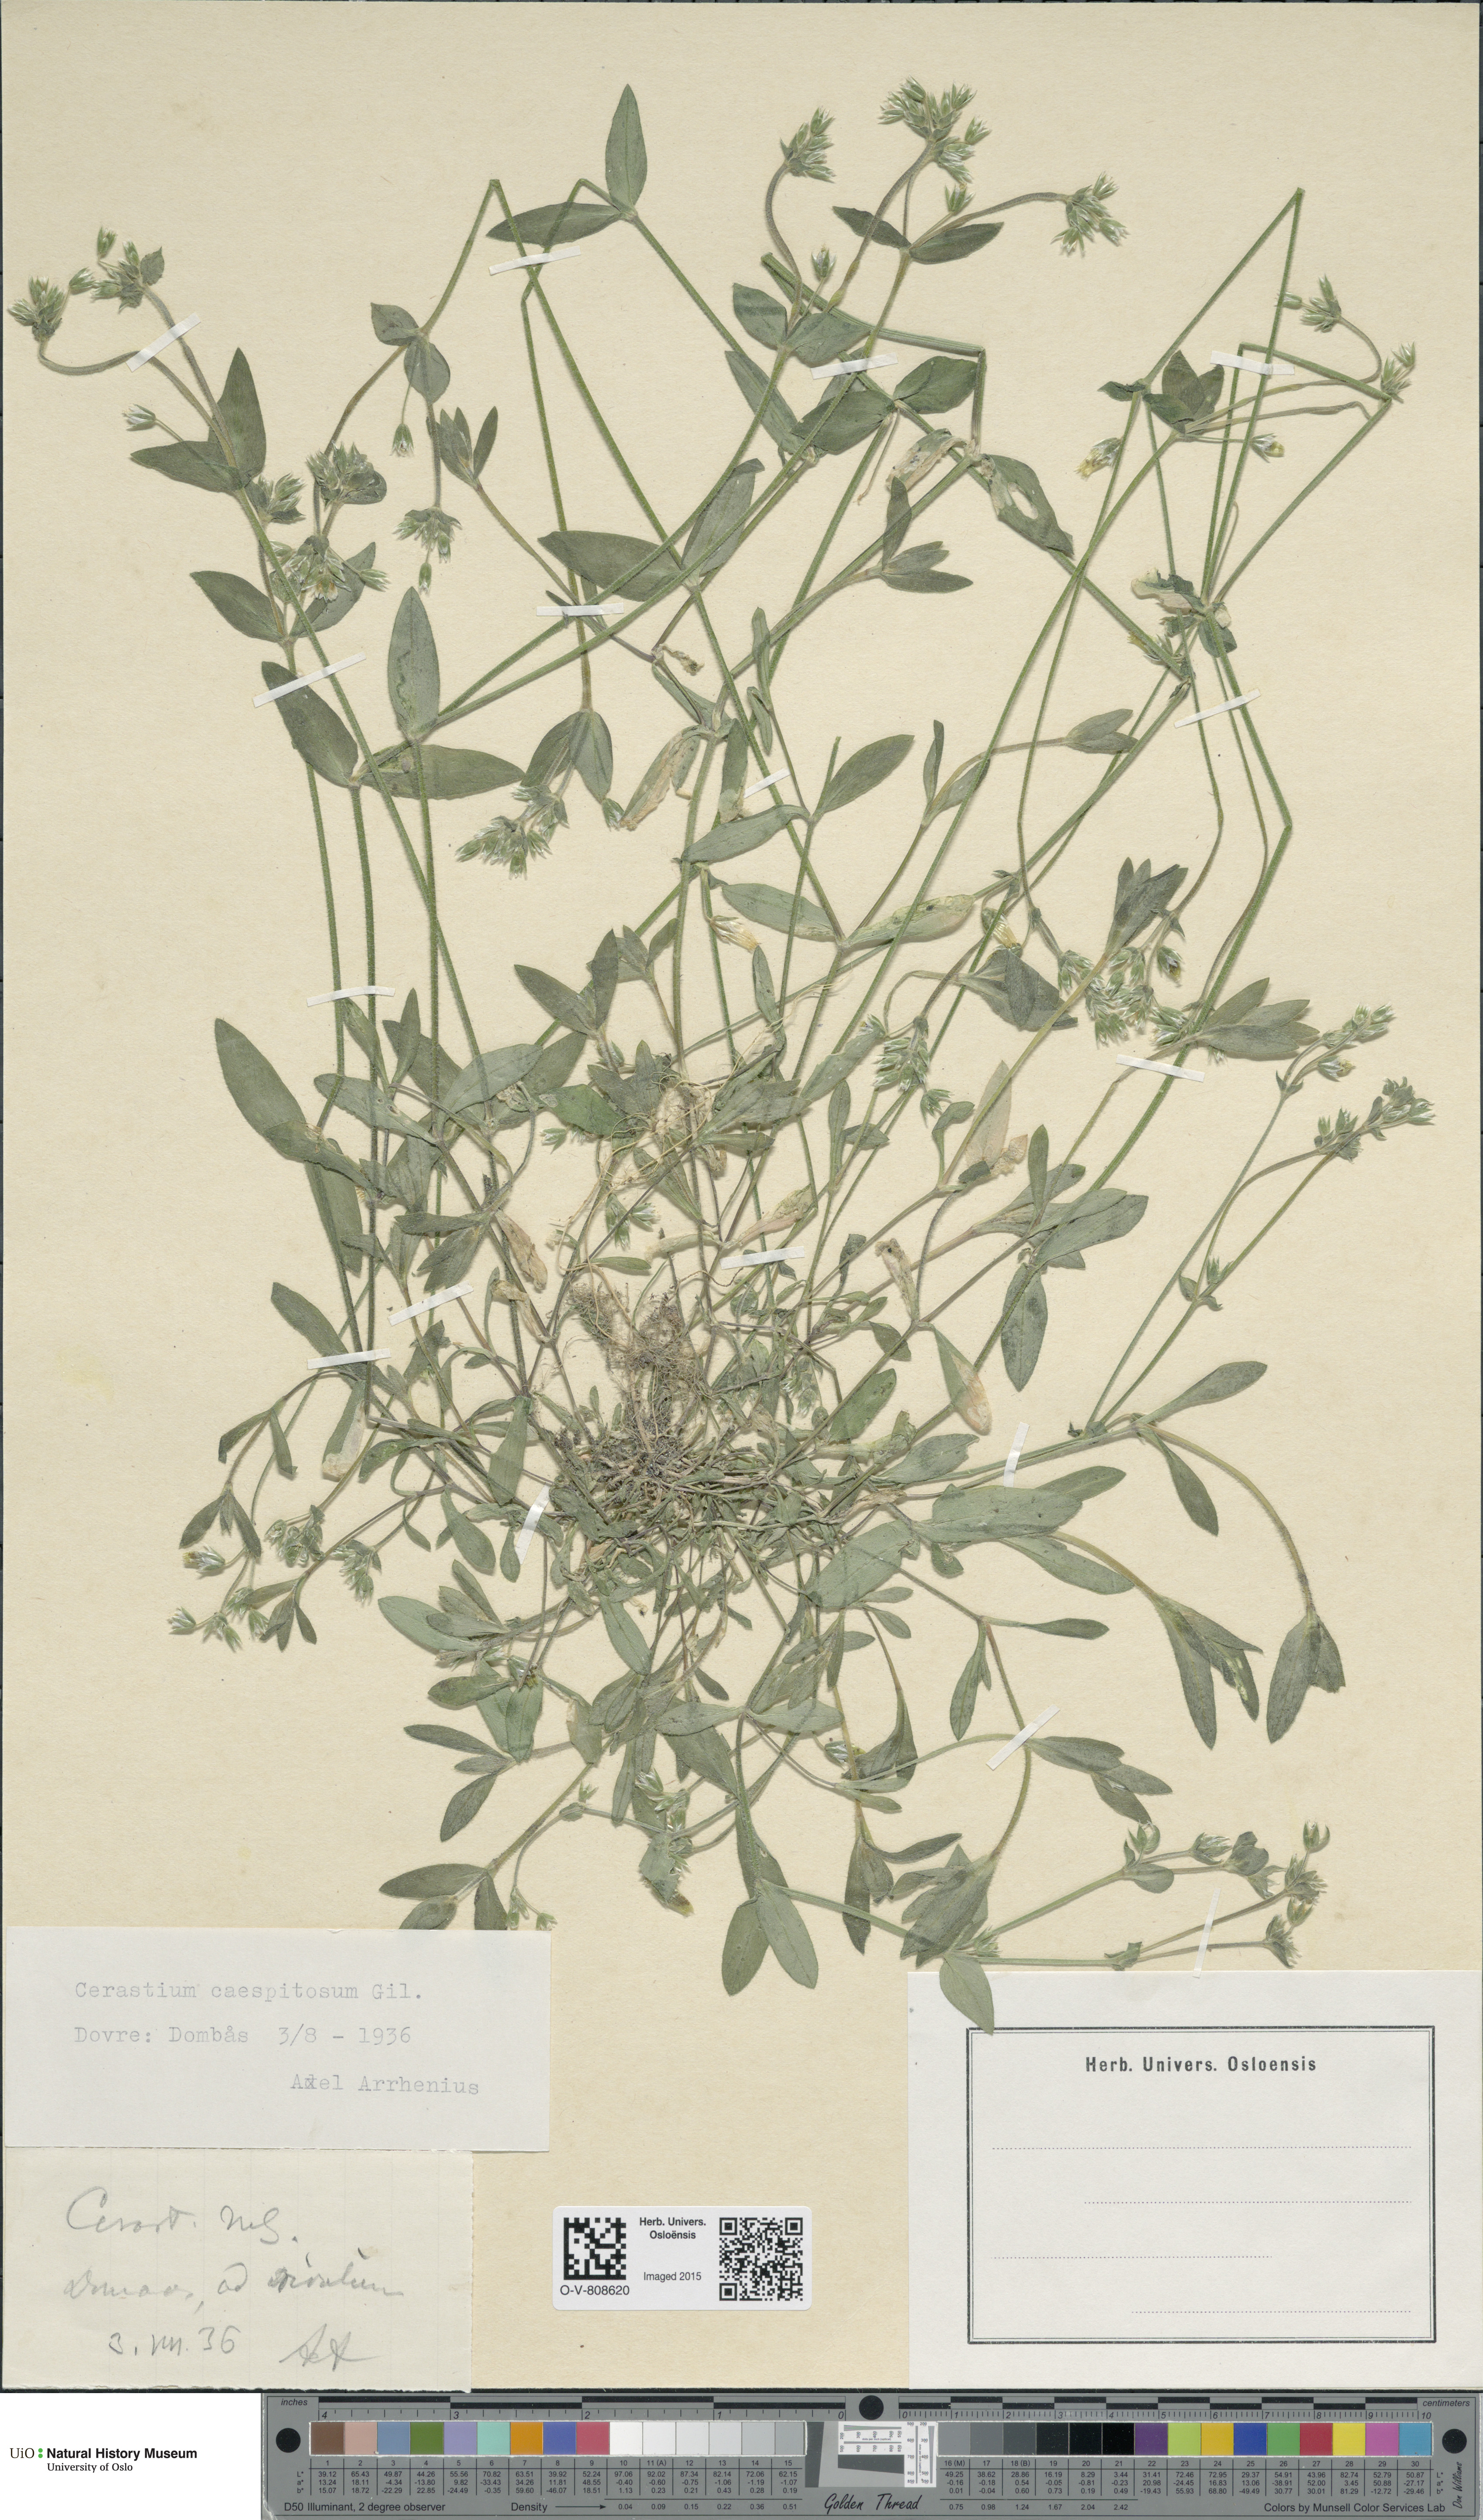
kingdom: Plantae
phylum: Tracheophyta
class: Magnoliopsida
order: Caryophyllales
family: Caryophyllaceae
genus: Cerastium
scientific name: Cerastium holosteoides
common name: Big chickweed
